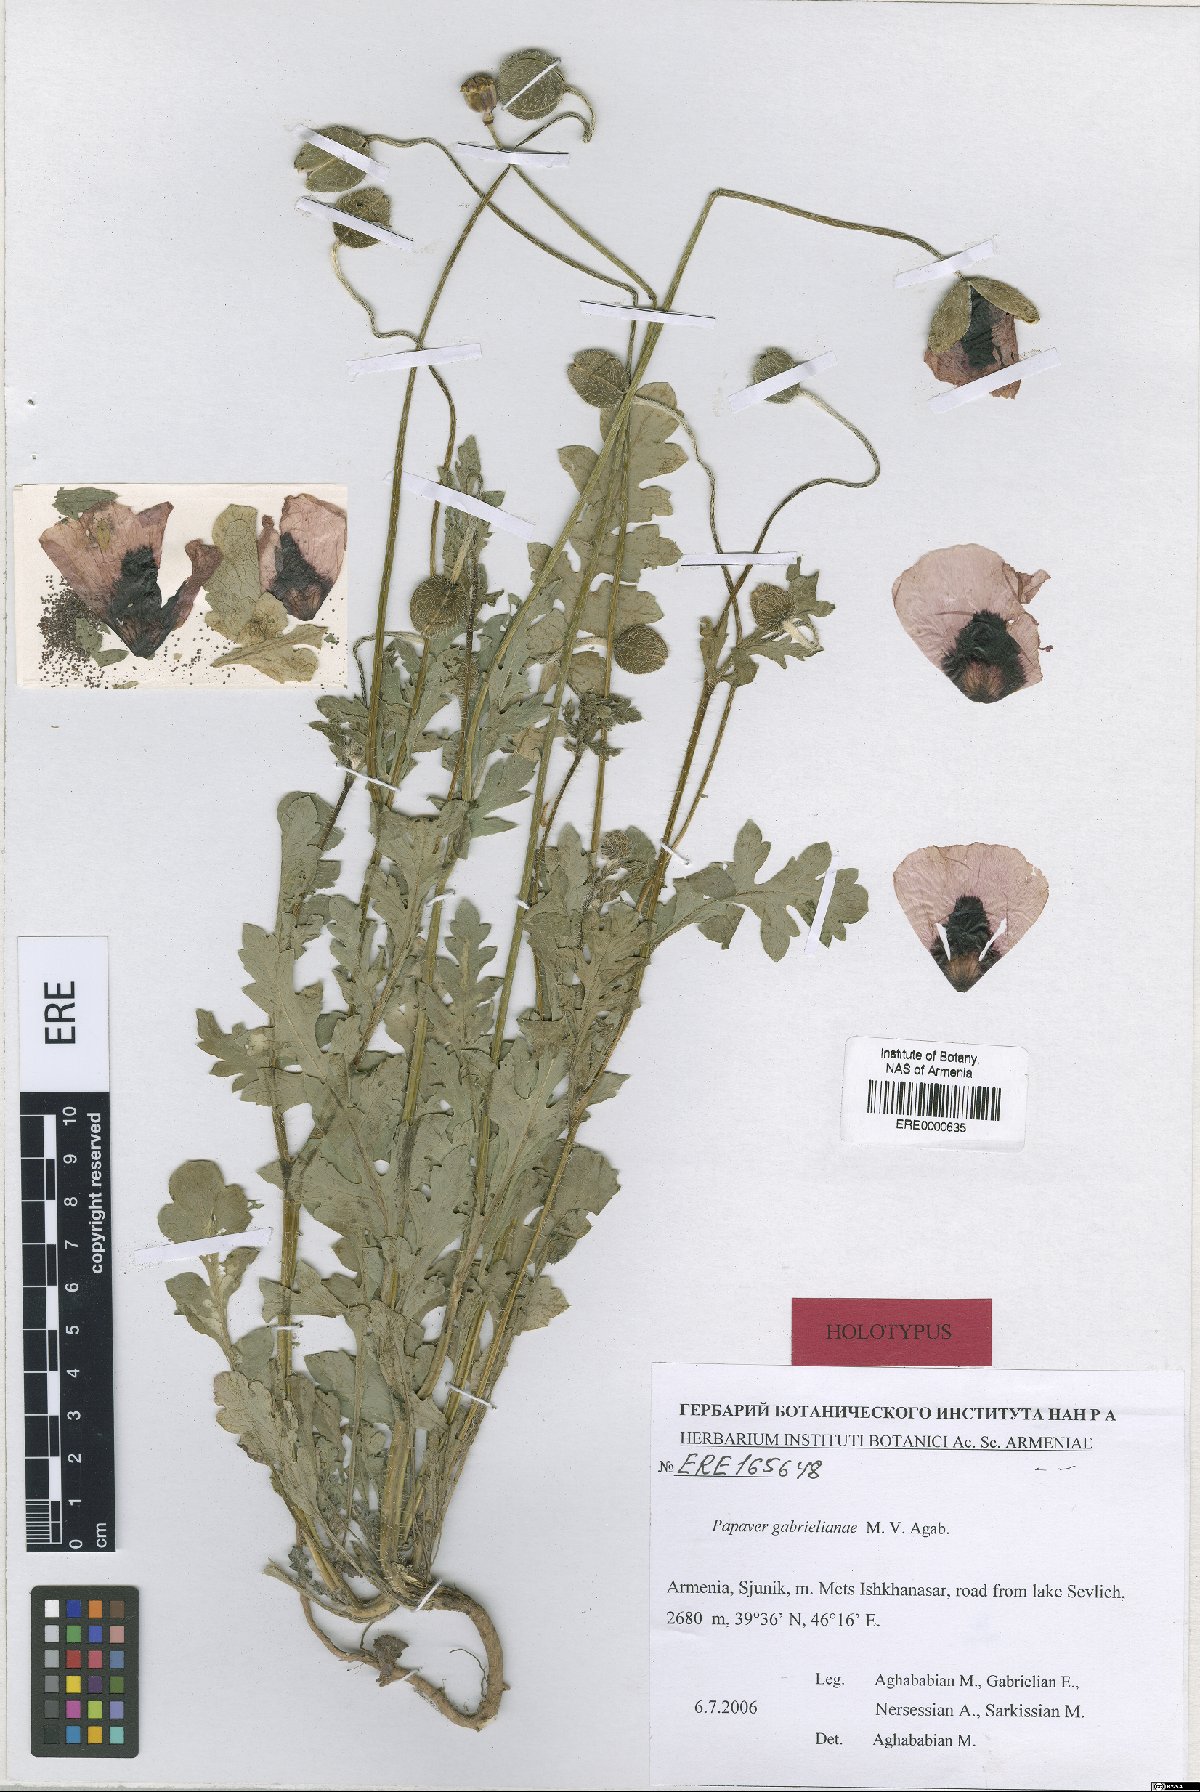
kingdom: Plantae
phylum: Tracheophyta
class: Magnoliopsida
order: Ranunculales
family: Papaveraceae
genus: Papaver
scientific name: Papaver rhoeas
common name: Corn poppy
